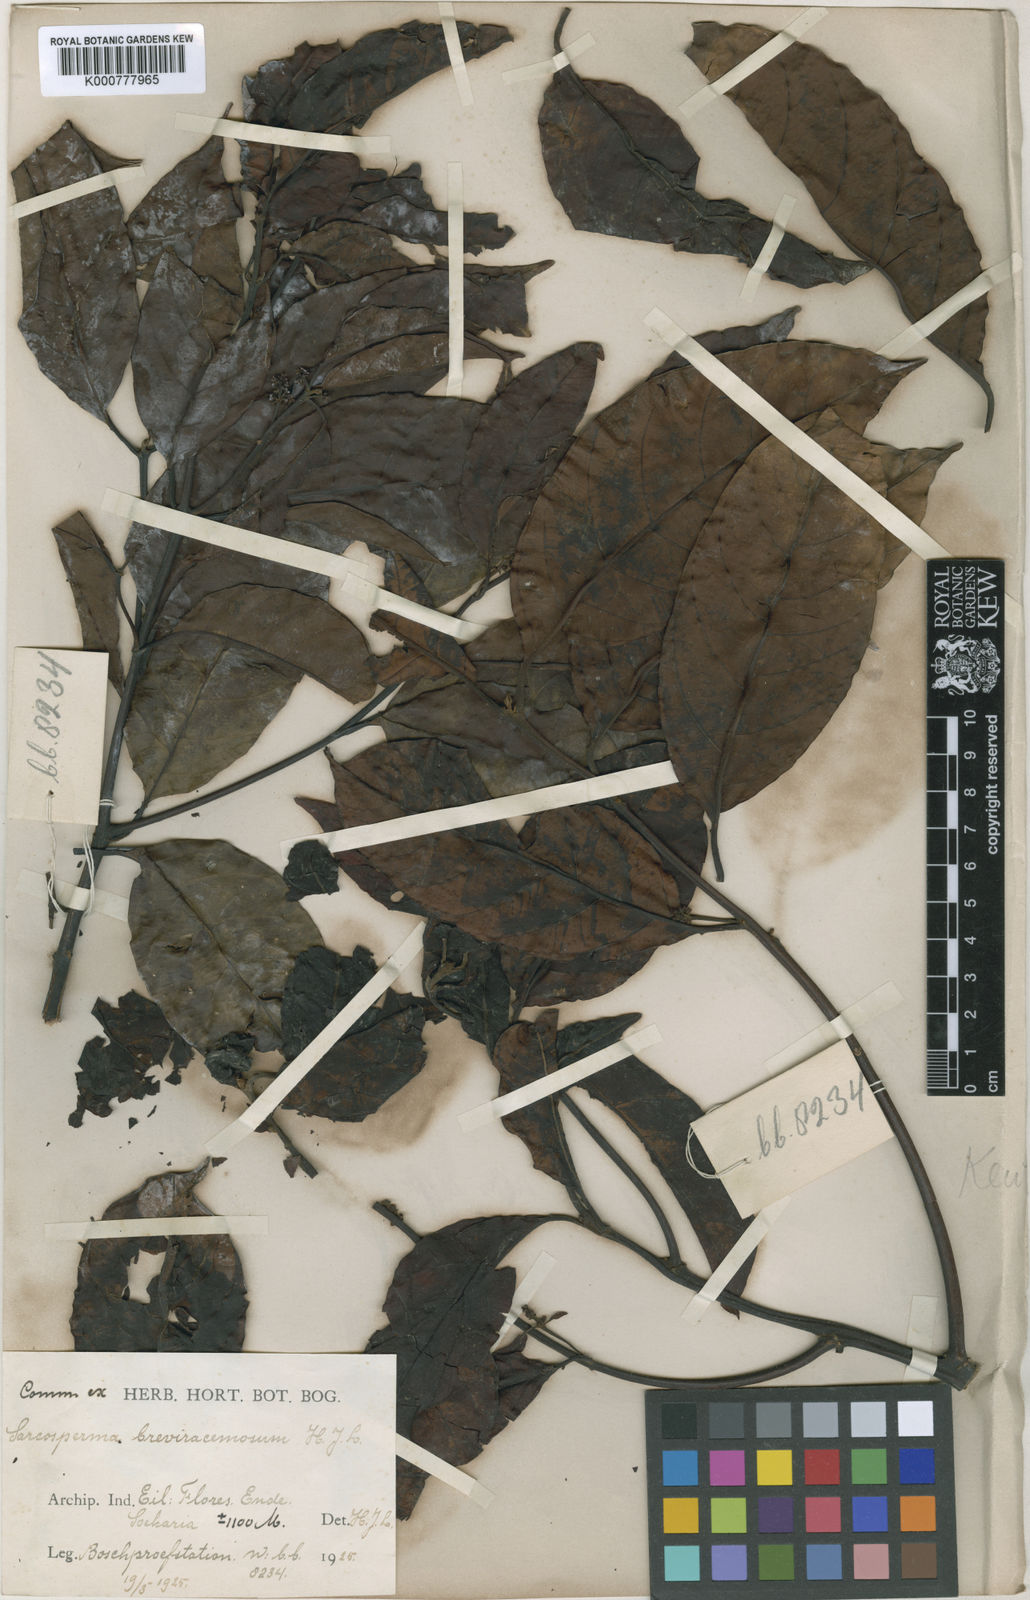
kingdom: Plantae
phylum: Tracheophyta
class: Magnoliopsida
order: Ericales
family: Sapotaceae
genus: Sarcosperma
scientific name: Sarcosperma paniculatum
